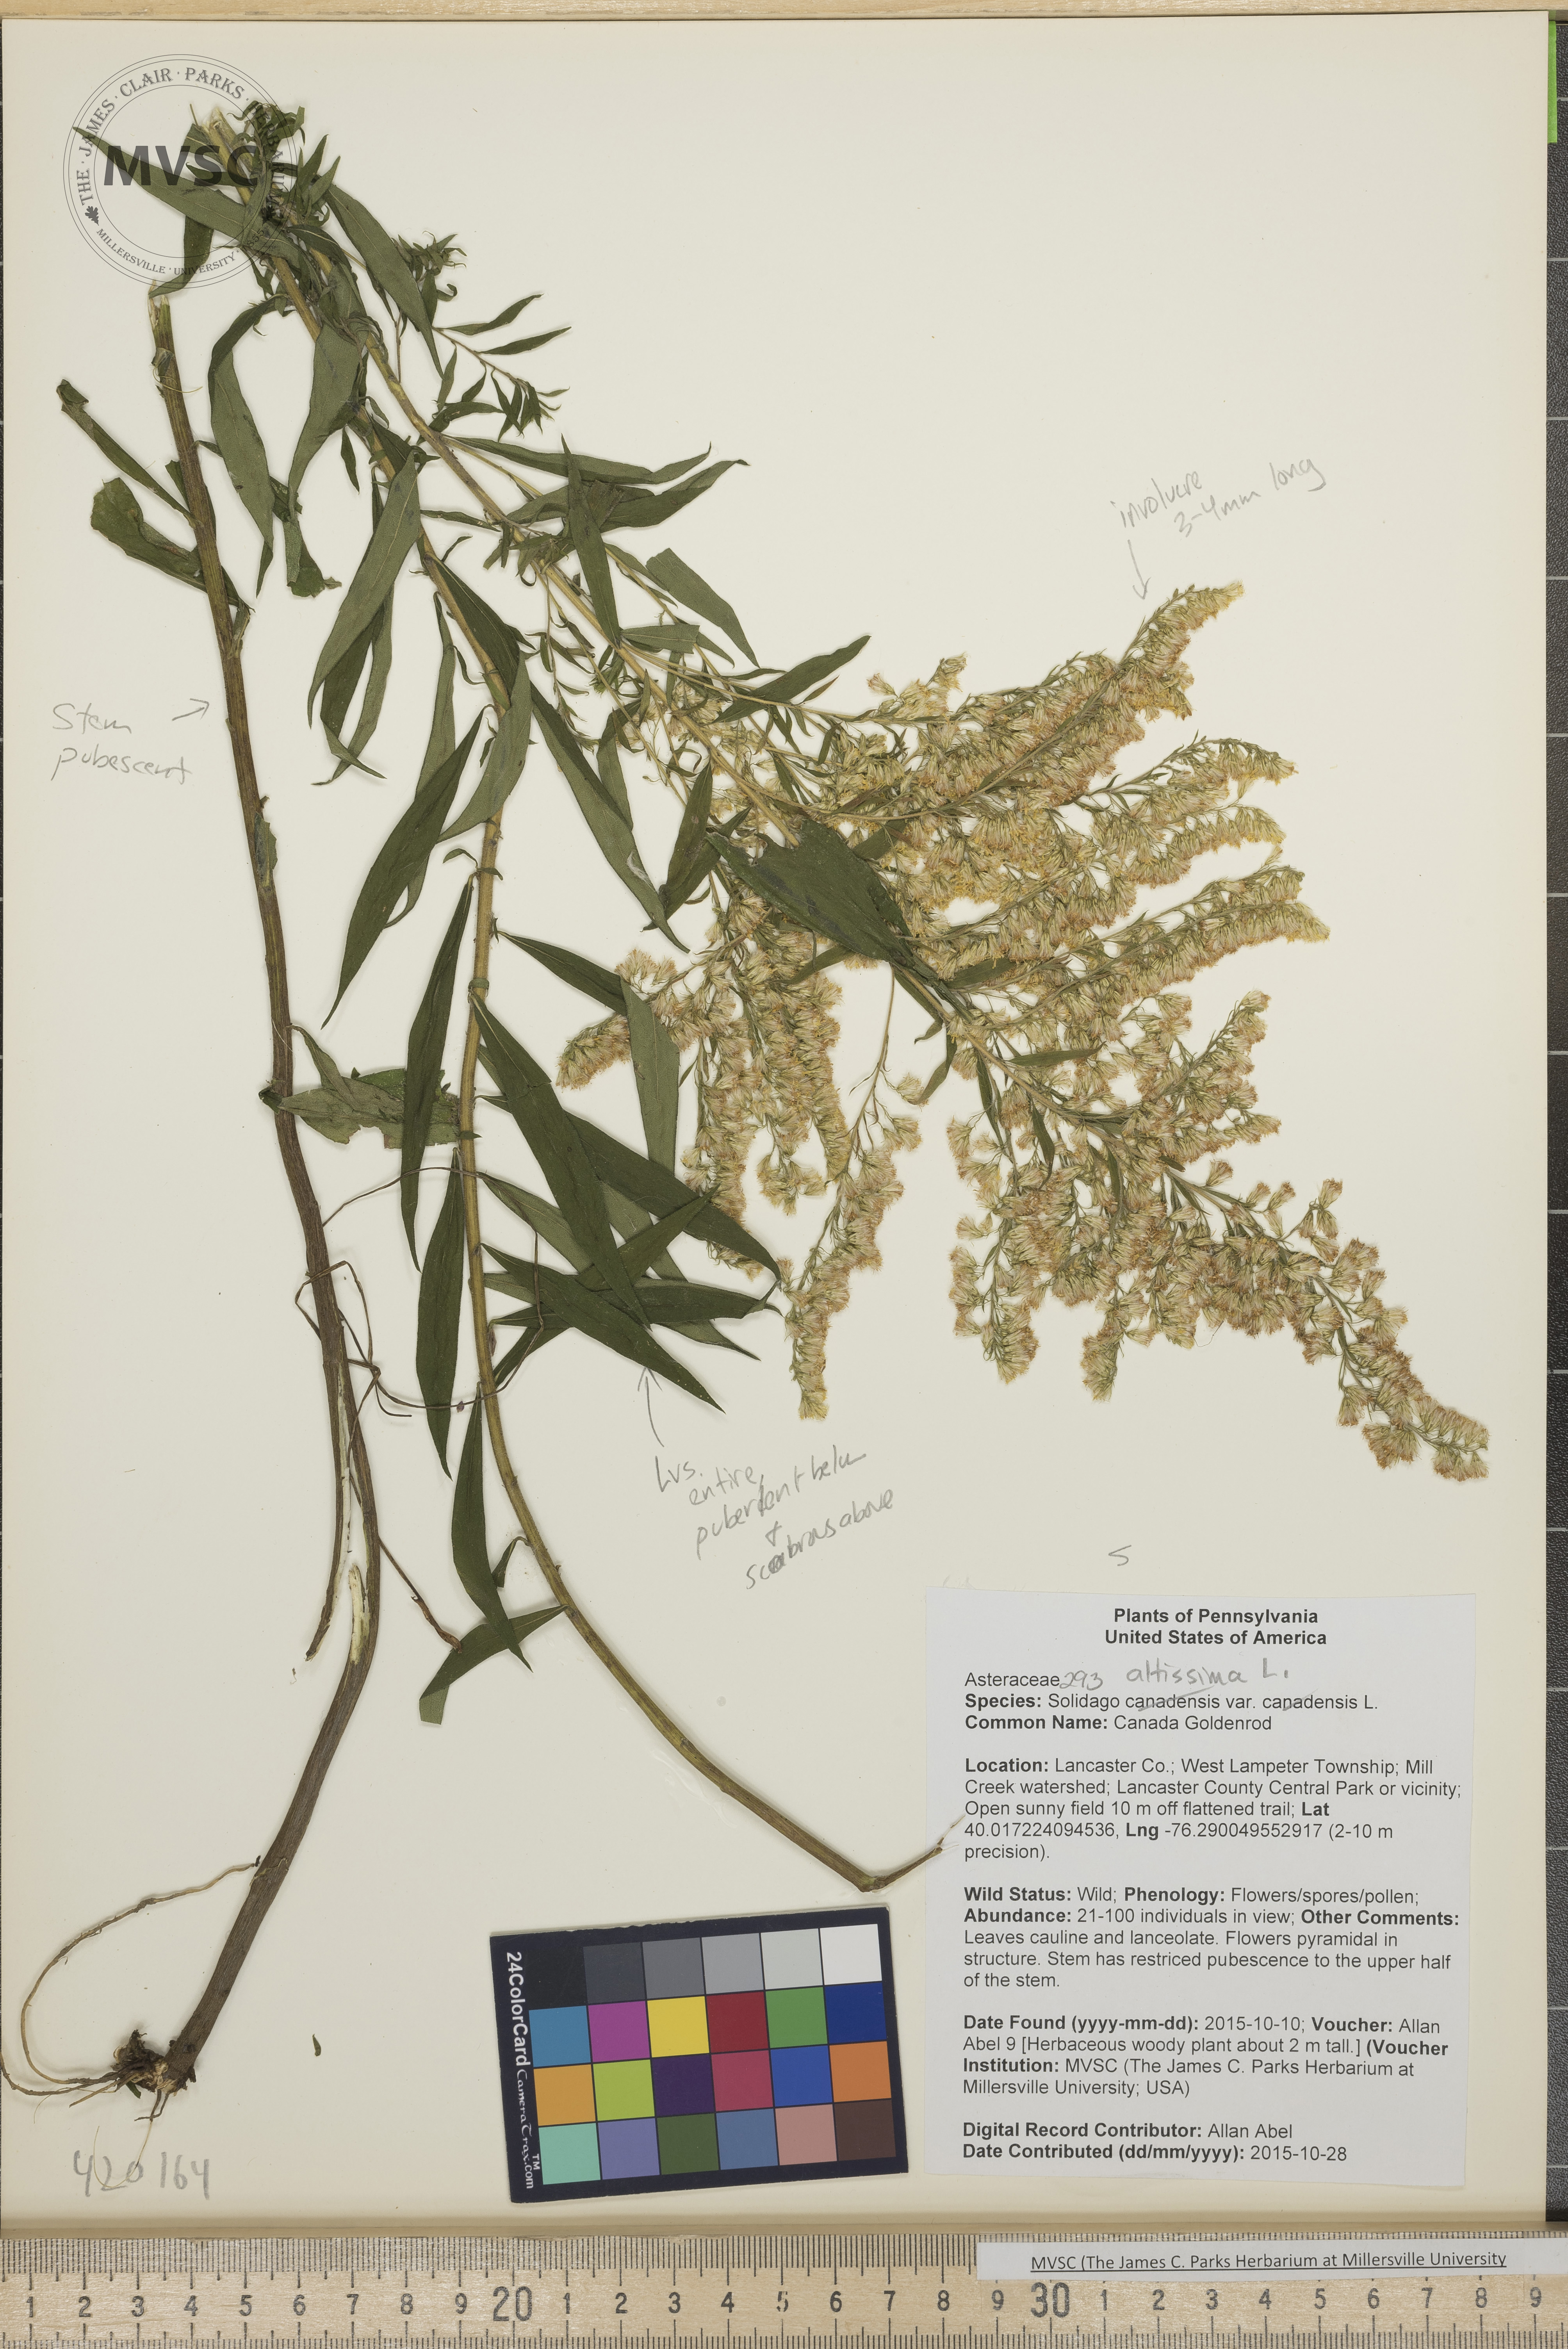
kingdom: Plantae
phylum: Tracheophyta
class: Magnoliopsida
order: Asterales
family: Asteraceae
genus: Solidago
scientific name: Solidago altissima
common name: Late Goldenrod
